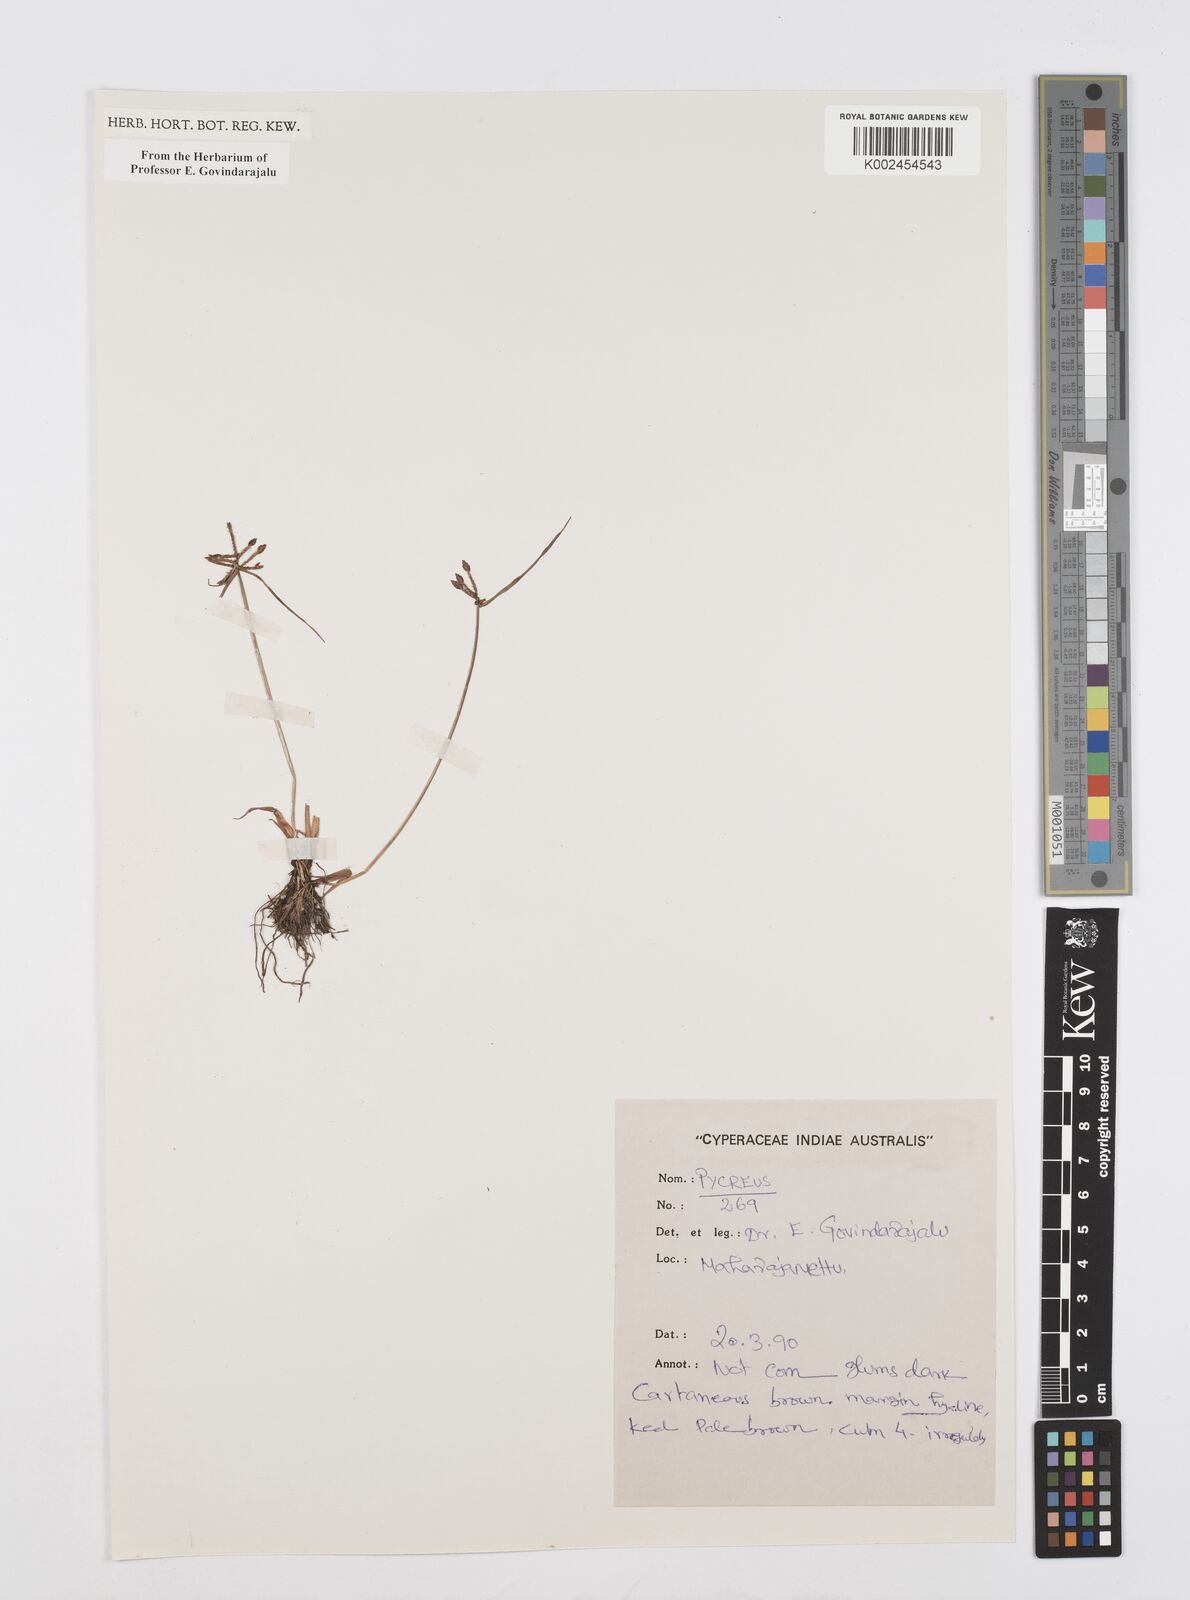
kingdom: Plantae
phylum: Tracheophyta
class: Liliopsida
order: Poales
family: Cyperaceae
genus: Cyperus
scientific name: Cyperus
